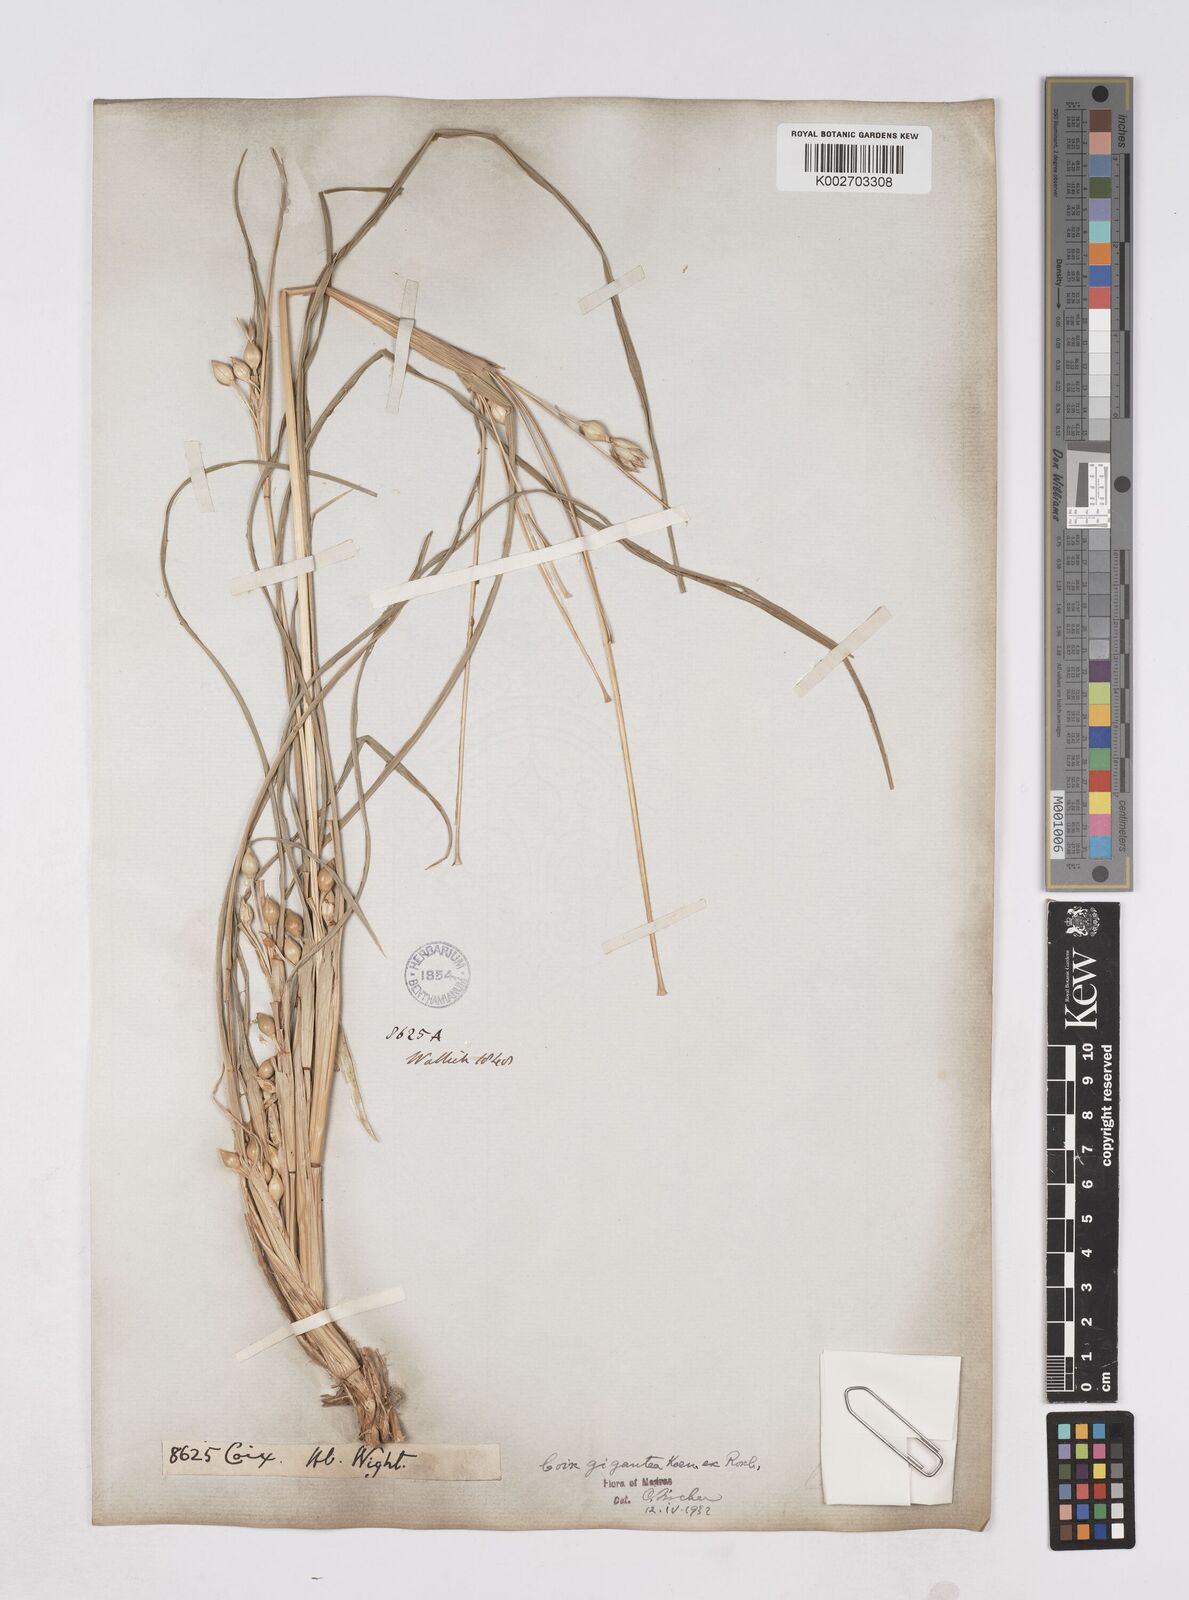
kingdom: Plantae
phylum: Tracheophyta
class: Liliopsida
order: Poales
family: Poaceae
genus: Polytoca
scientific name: Polytoca gigantea
